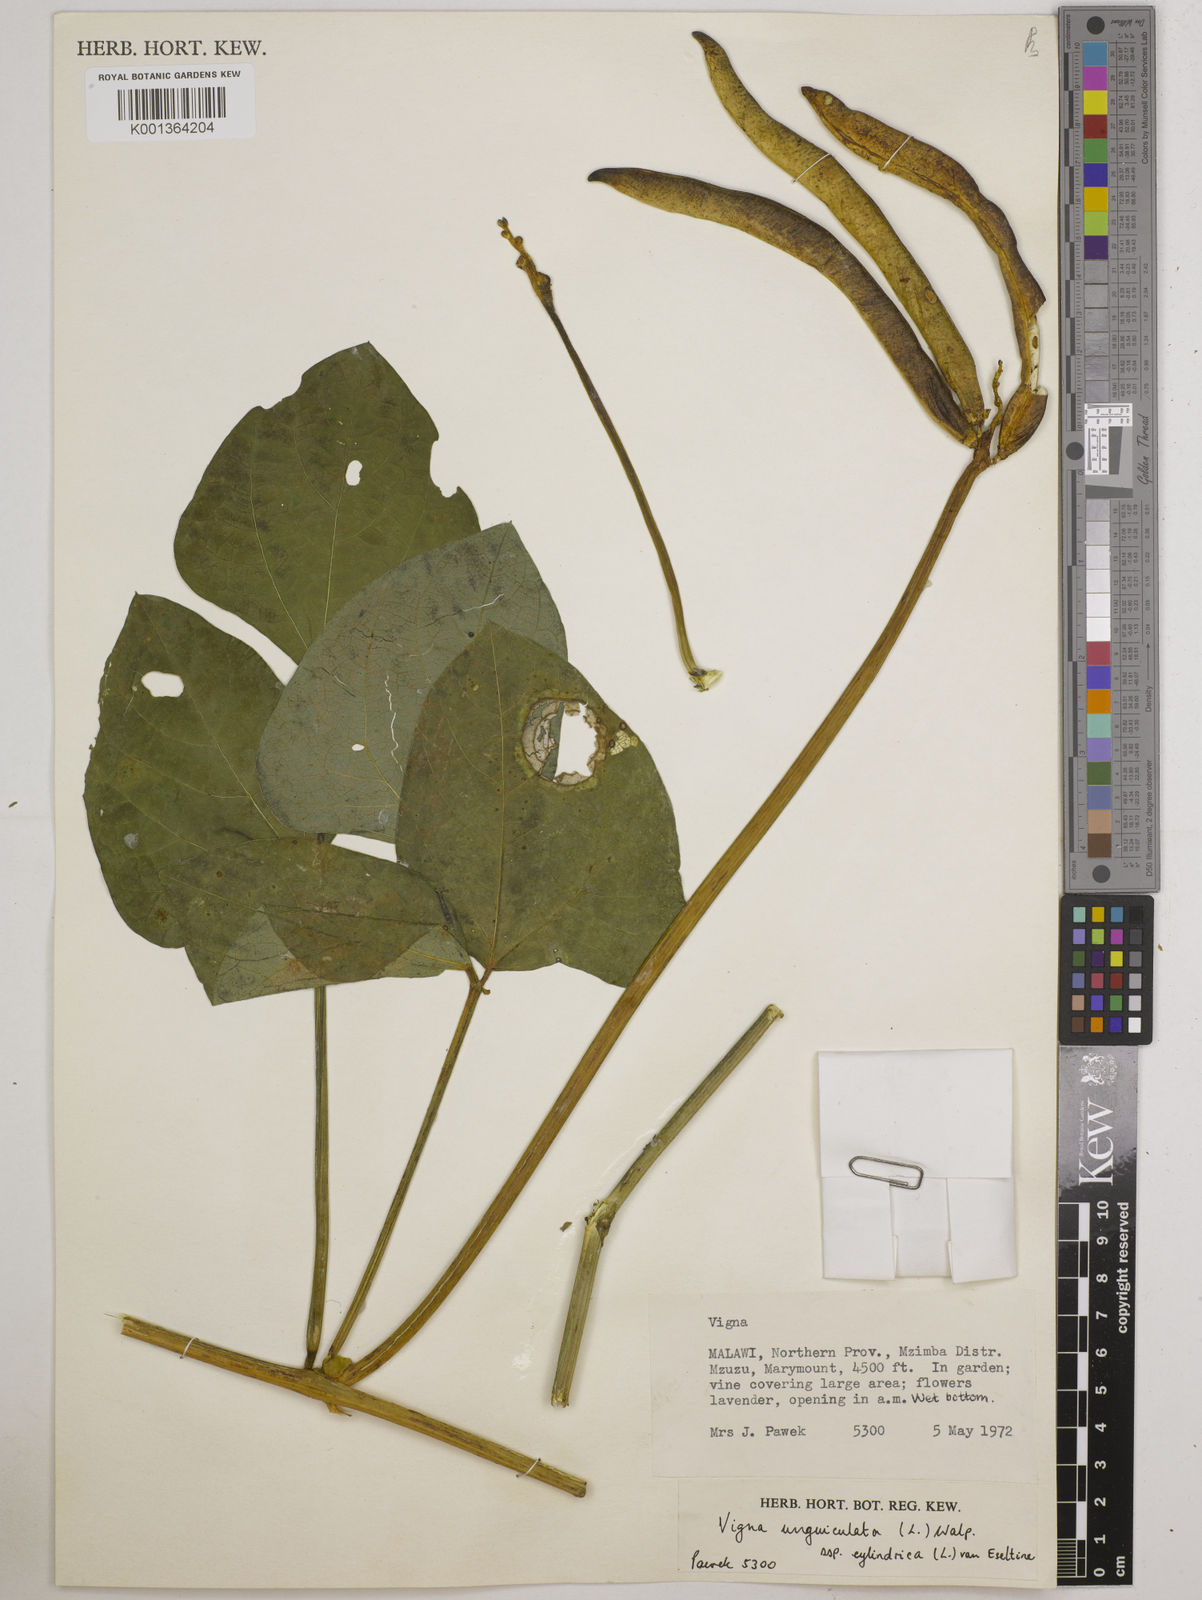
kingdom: Plantae
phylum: Tracheophyta
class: Magnoliopsida
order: Fabales
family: Fabaceae
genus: Vigna
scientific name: Vigna
